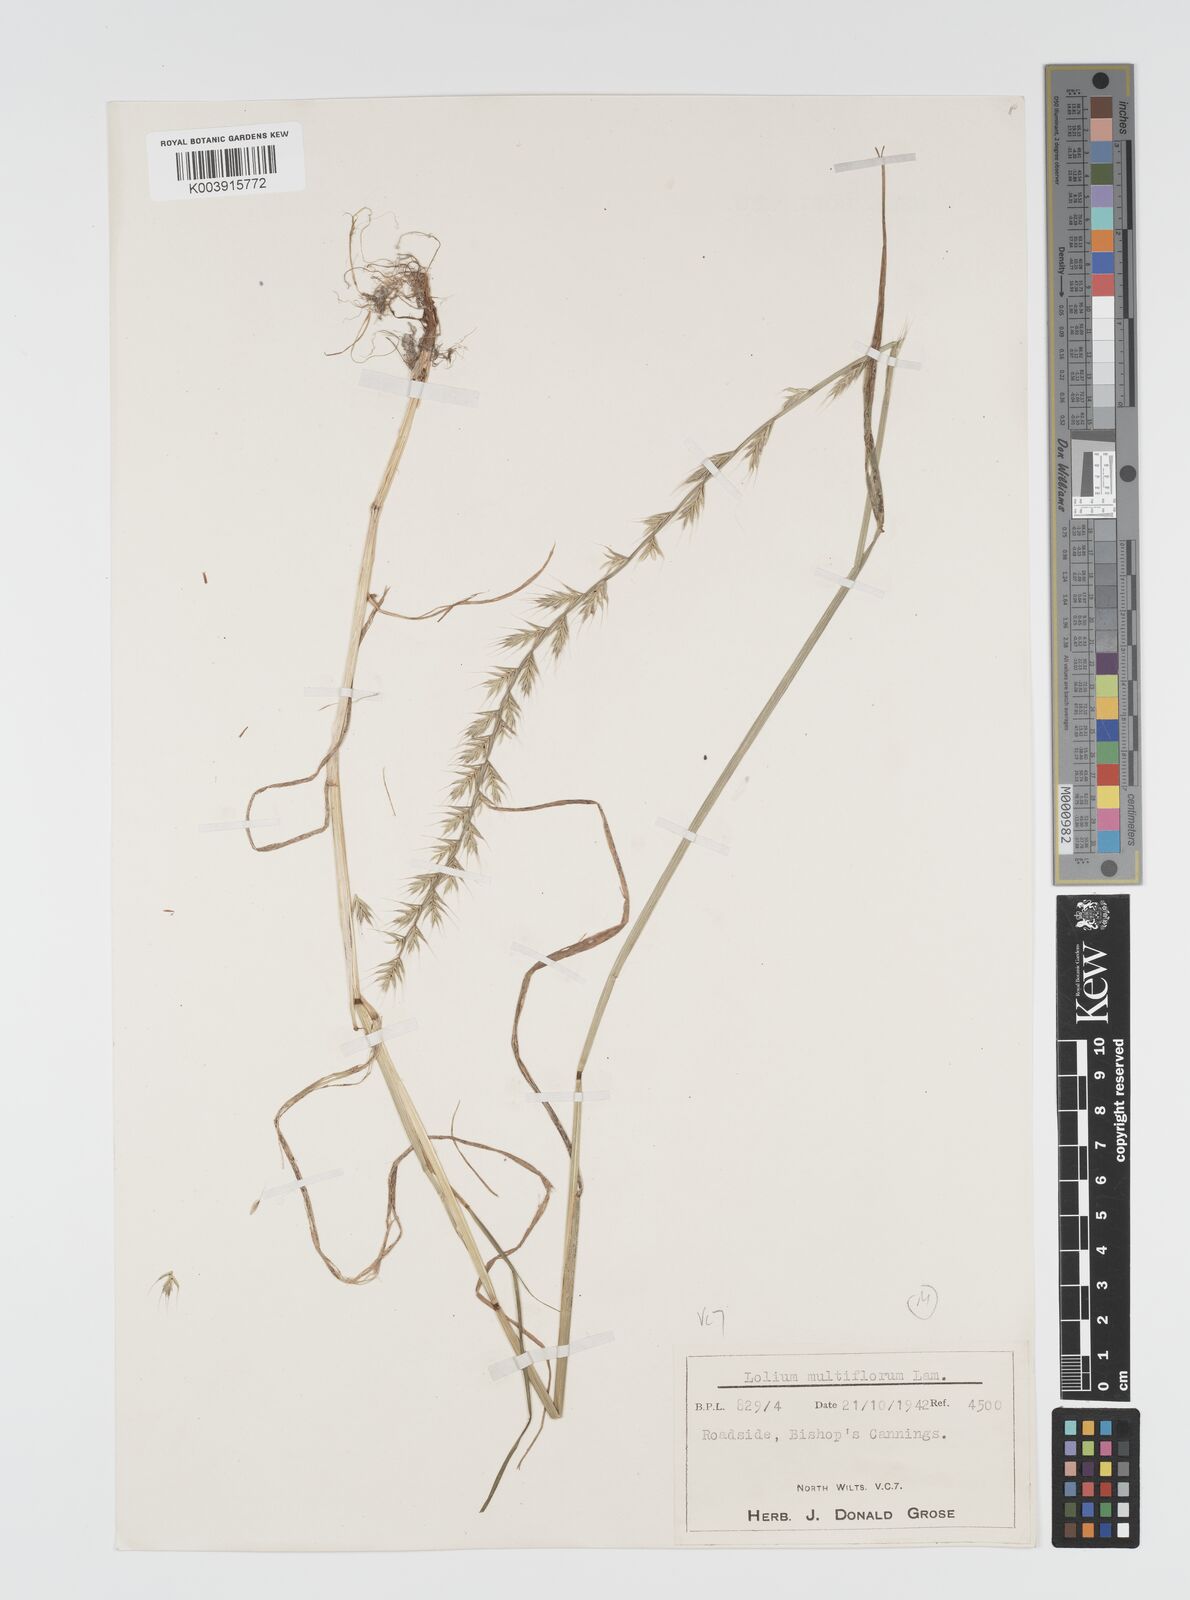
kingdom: Plantae
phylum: Tracheophyta
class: Liliopsida
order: Poales
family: Poaceae
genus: Lolium
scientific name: Lolium multiflorum
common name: Annual ryegrass
